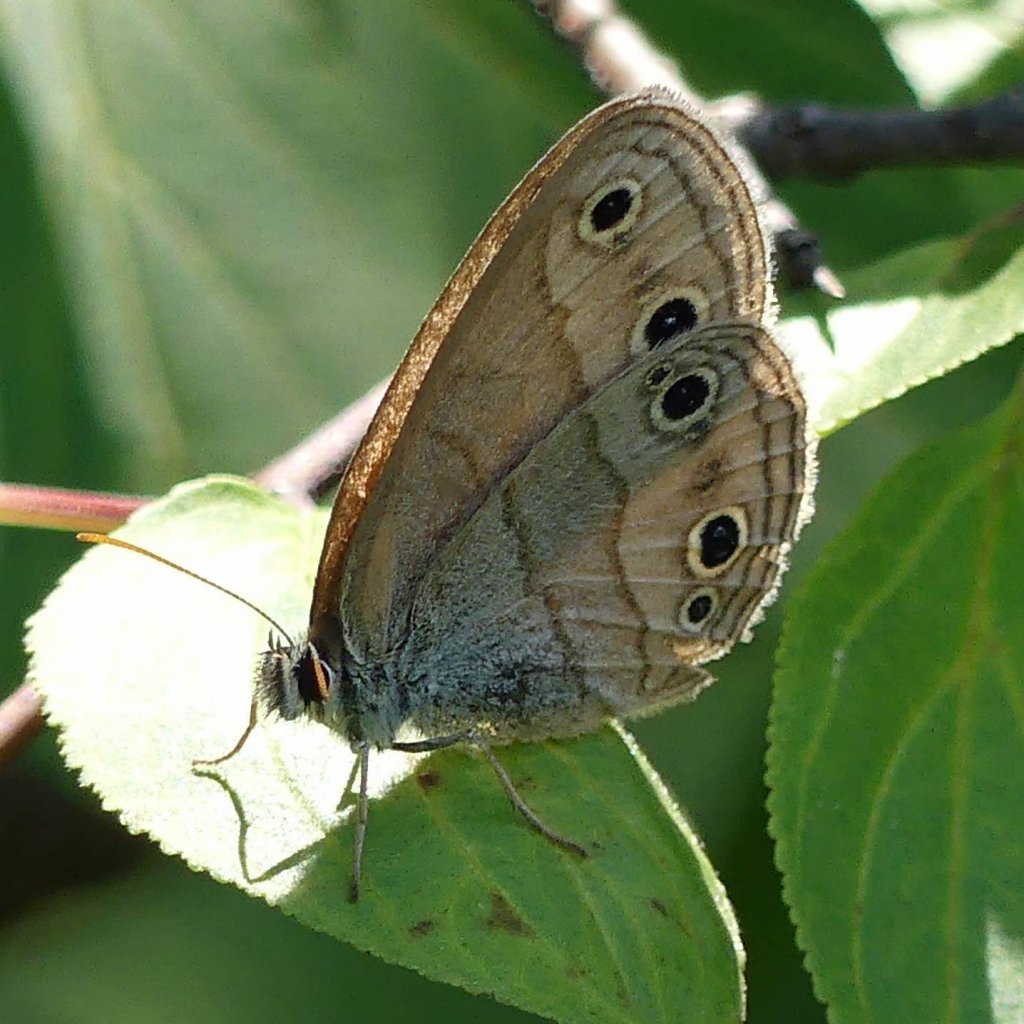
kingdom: Animalia
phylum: Arthropoda
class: Insecta
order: Lepidoptera
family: Nymphalidae
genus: Euptychia
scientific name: Euptychia cymela
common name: Little Wood Satyr
